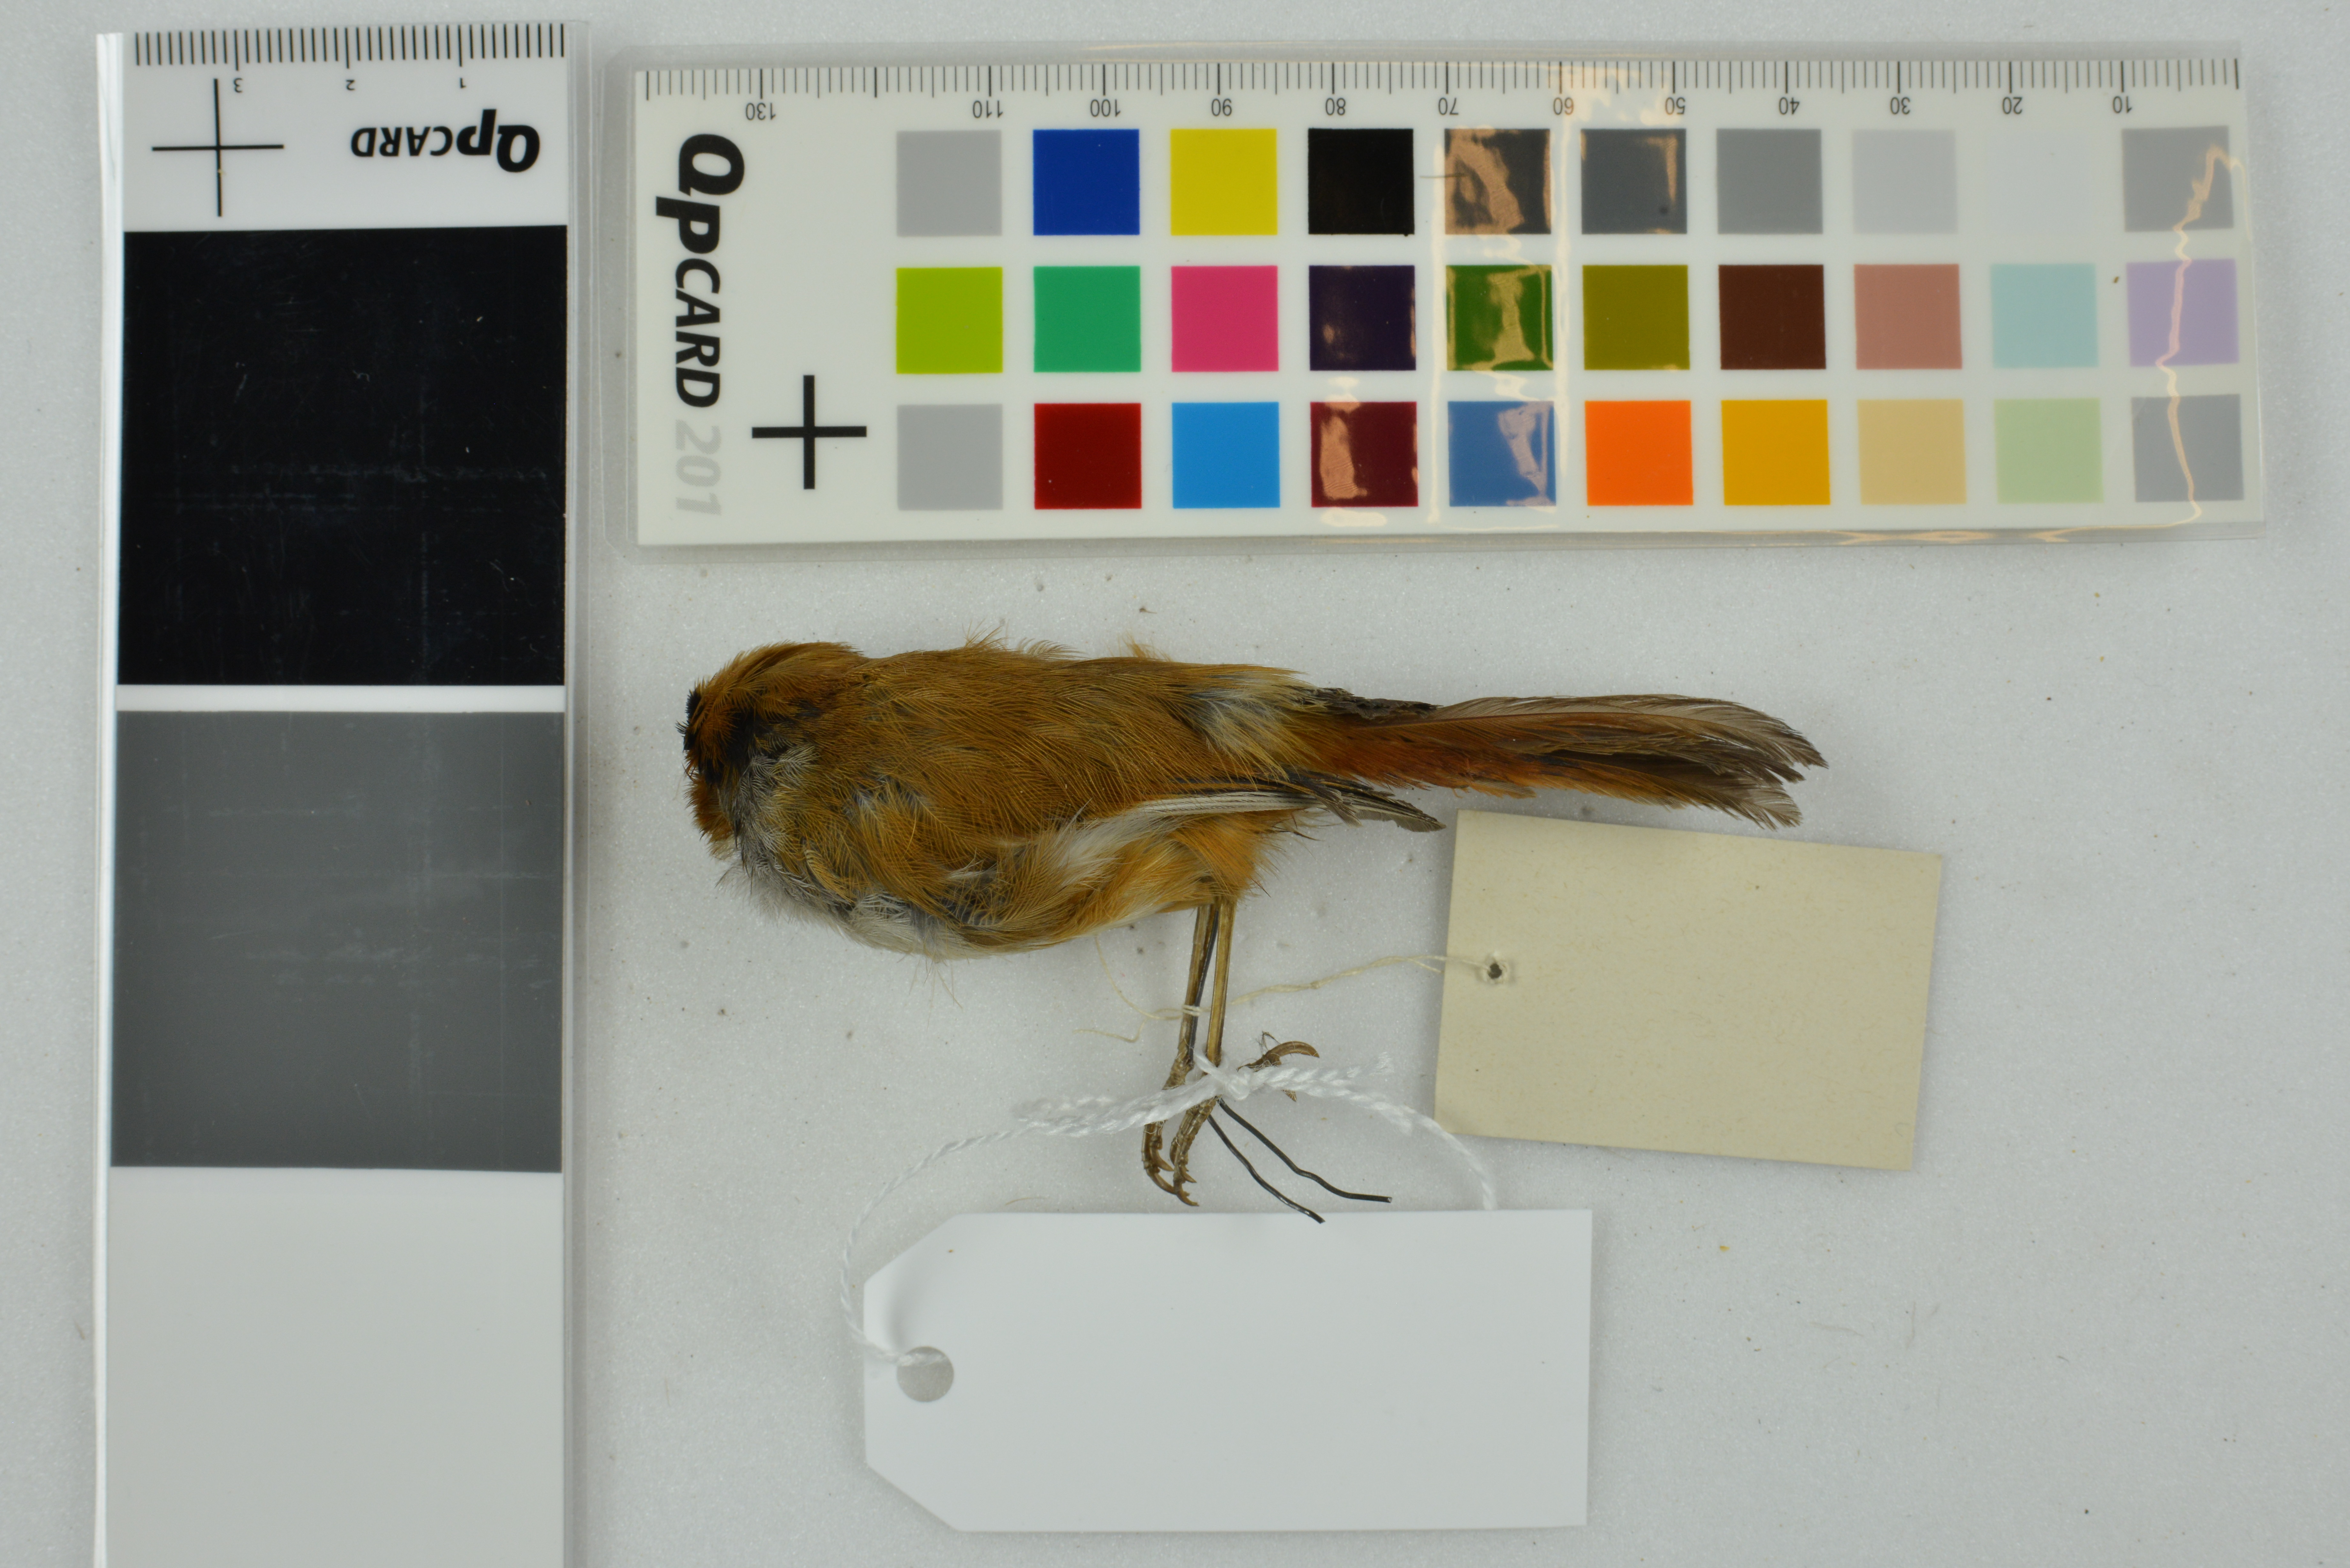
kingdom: Animalia
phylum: Chordata
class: Aves
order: Passeriformes
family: Sylviidae
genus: Suthora
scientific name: Suthora nipalensis
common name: Black-throated parrotbill
